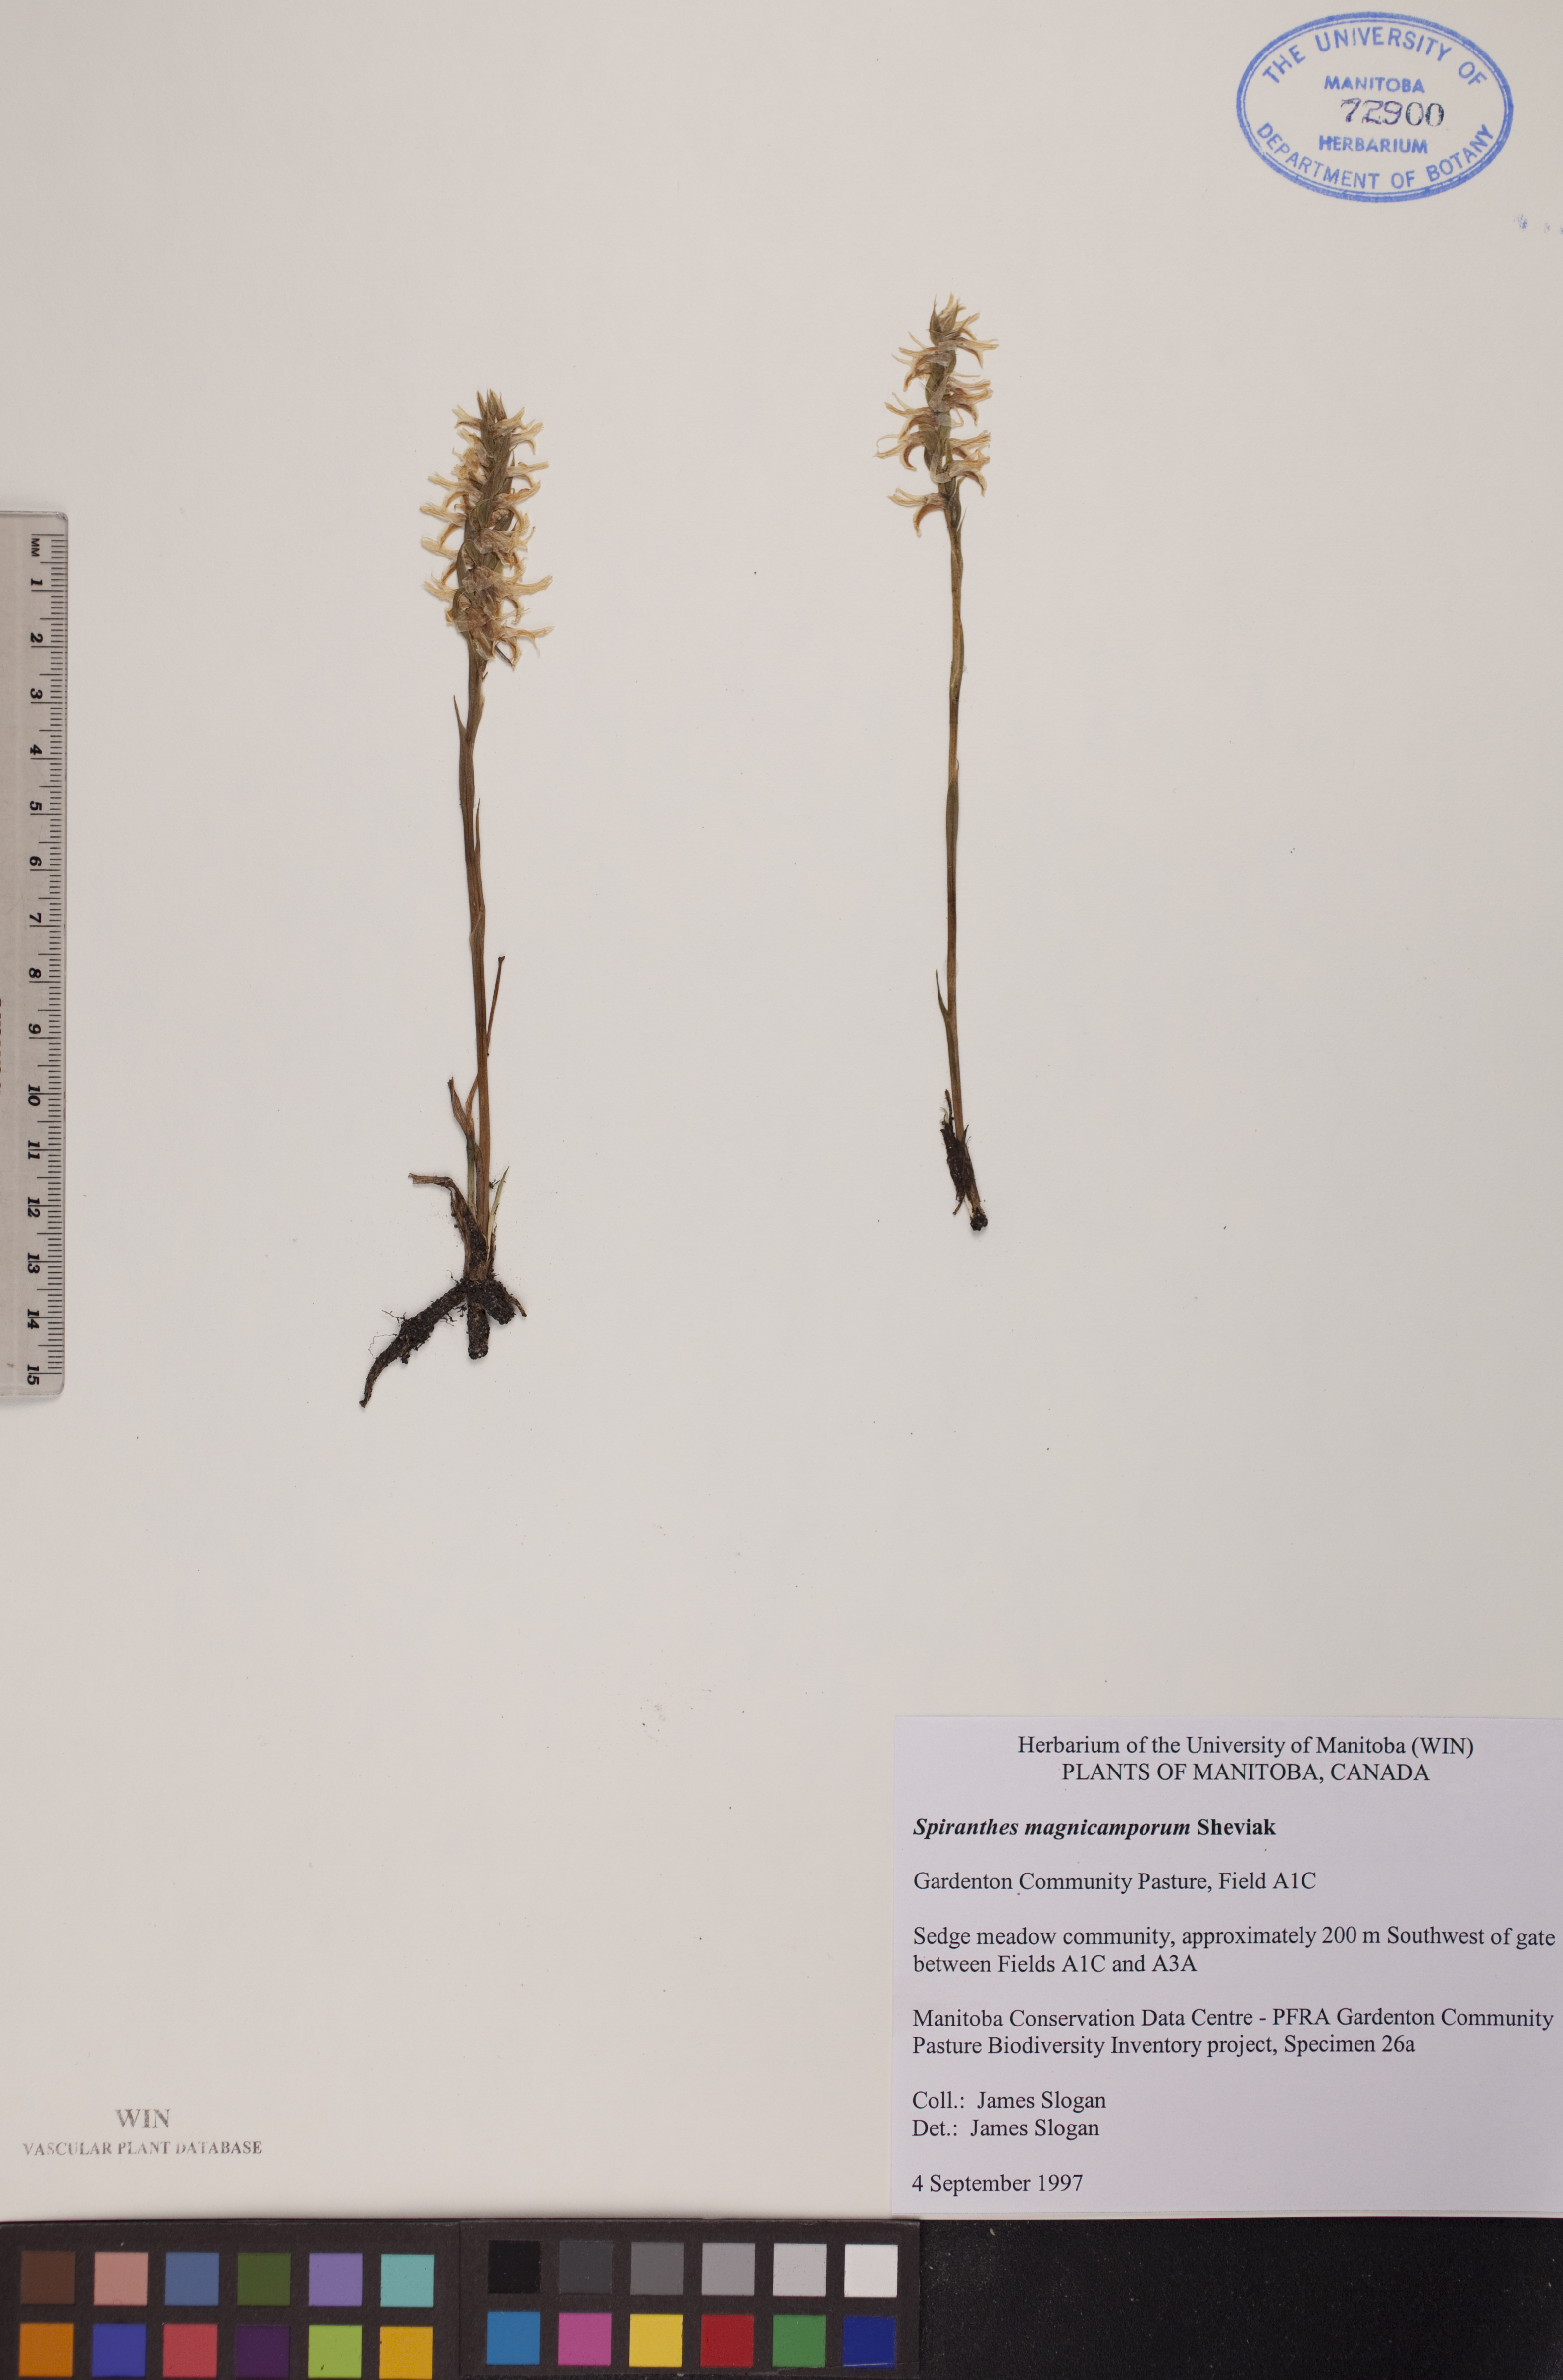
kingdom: Plantae
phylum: Tracheophyta
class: Liliopsida
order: Asparagales
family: Orchidaceae
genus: Spiranthes
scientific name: Spiranthes magnicamporum
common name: Great plains ladies'-tresses
